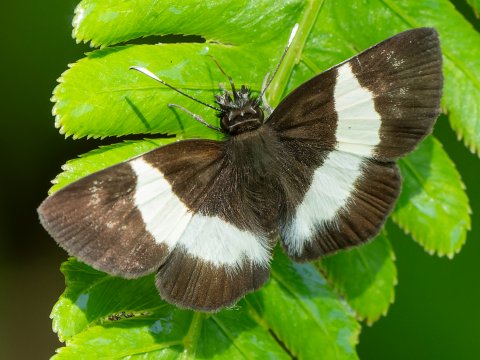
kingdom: Animalia
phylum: Arthropoda
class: Insecta
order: Lepidoptera
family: Hesperiidae
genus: Potamanaxas
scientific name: Potamanaxas
